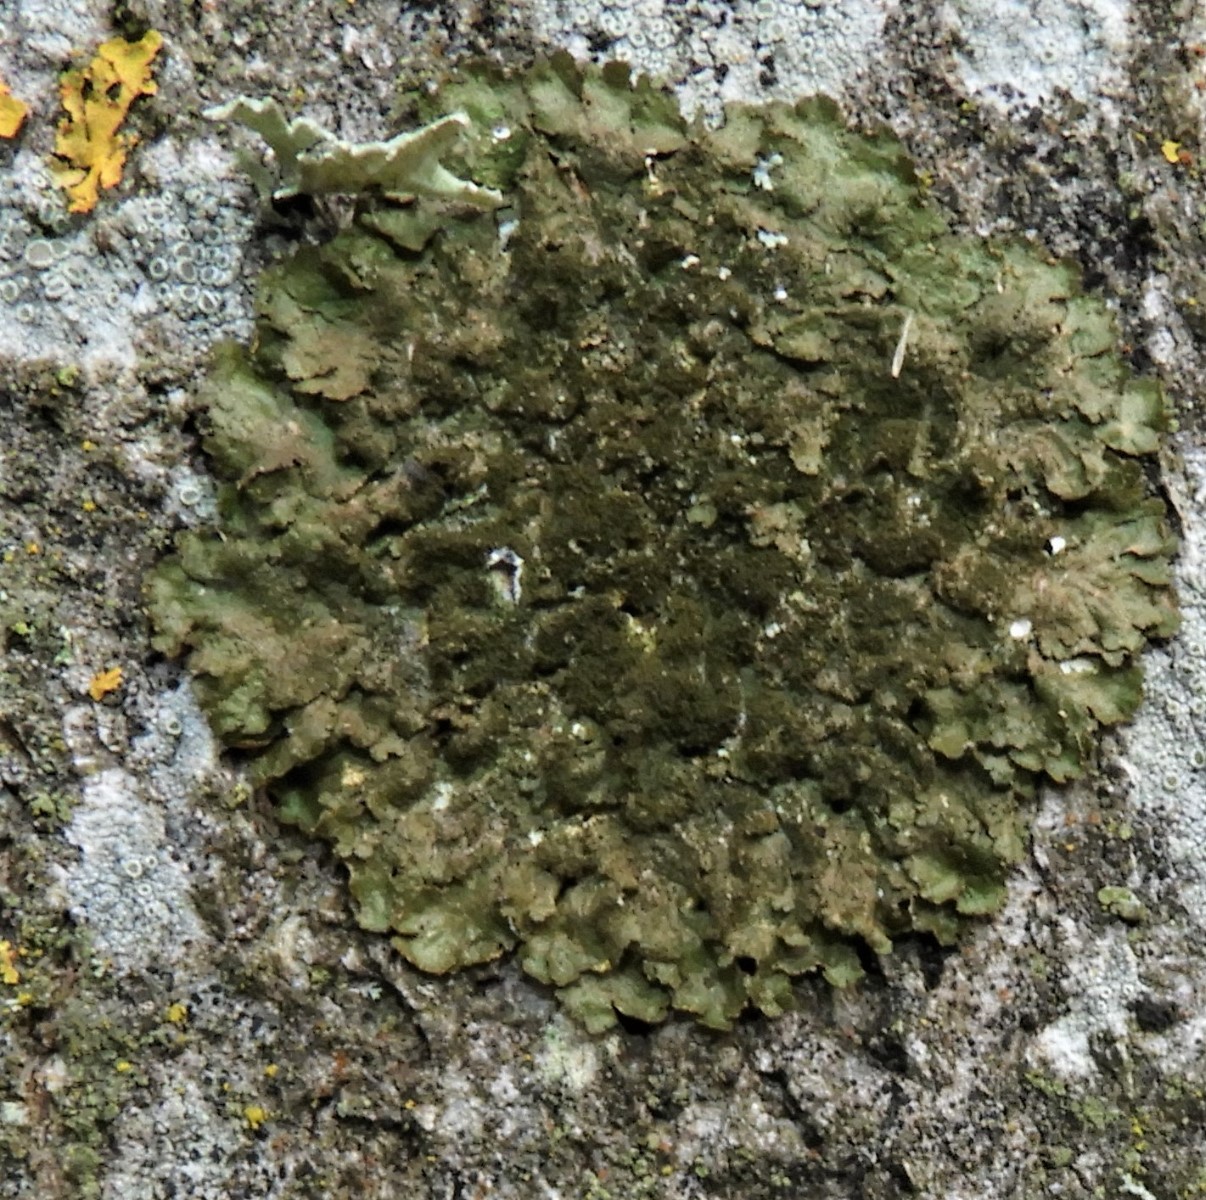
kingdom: Fungi
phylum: Ascomycota
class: Lecanoromycetes
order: Lecanorales
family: Parmeliaceae
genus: Melanelixia
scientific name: Melanelixia glabratula
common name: glinsende skållav
